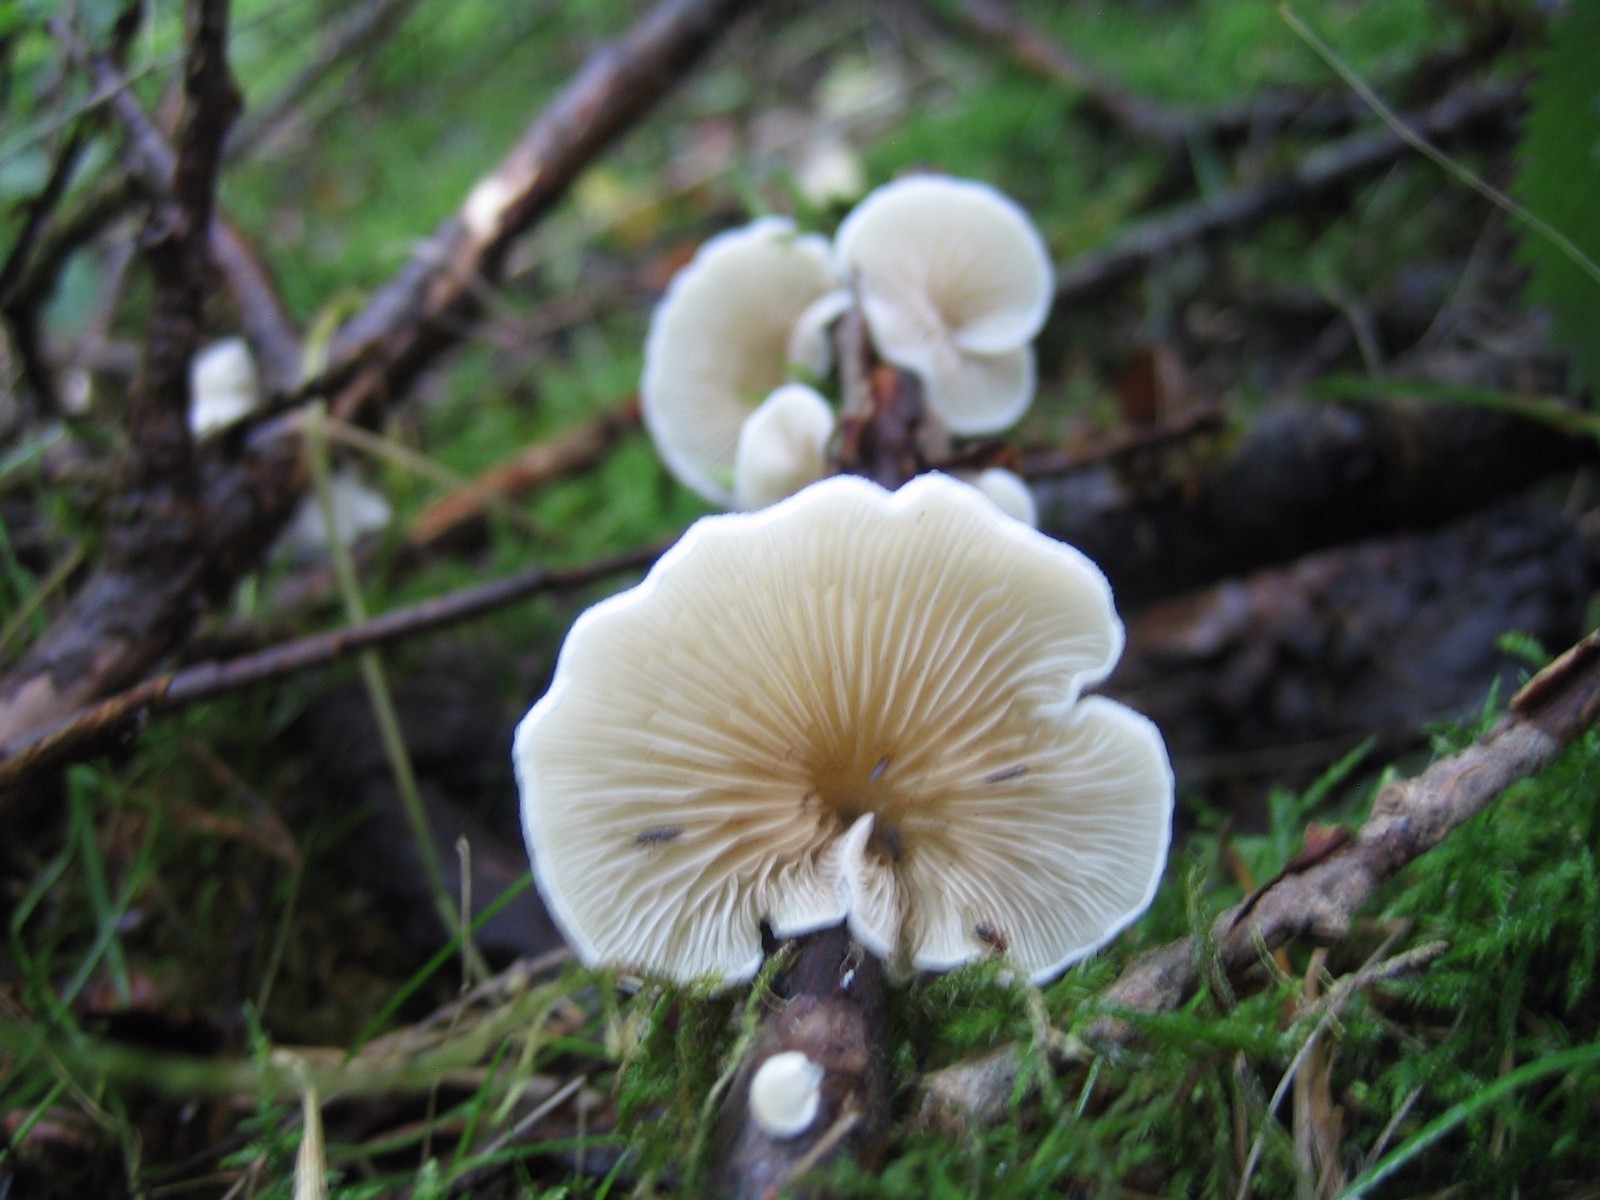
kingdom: Fungi
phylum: Basidiomycota
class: Agaricomycetes
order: Agaricales
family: Crepidotaceae
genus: Crepidotus
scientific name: Crepidotus
